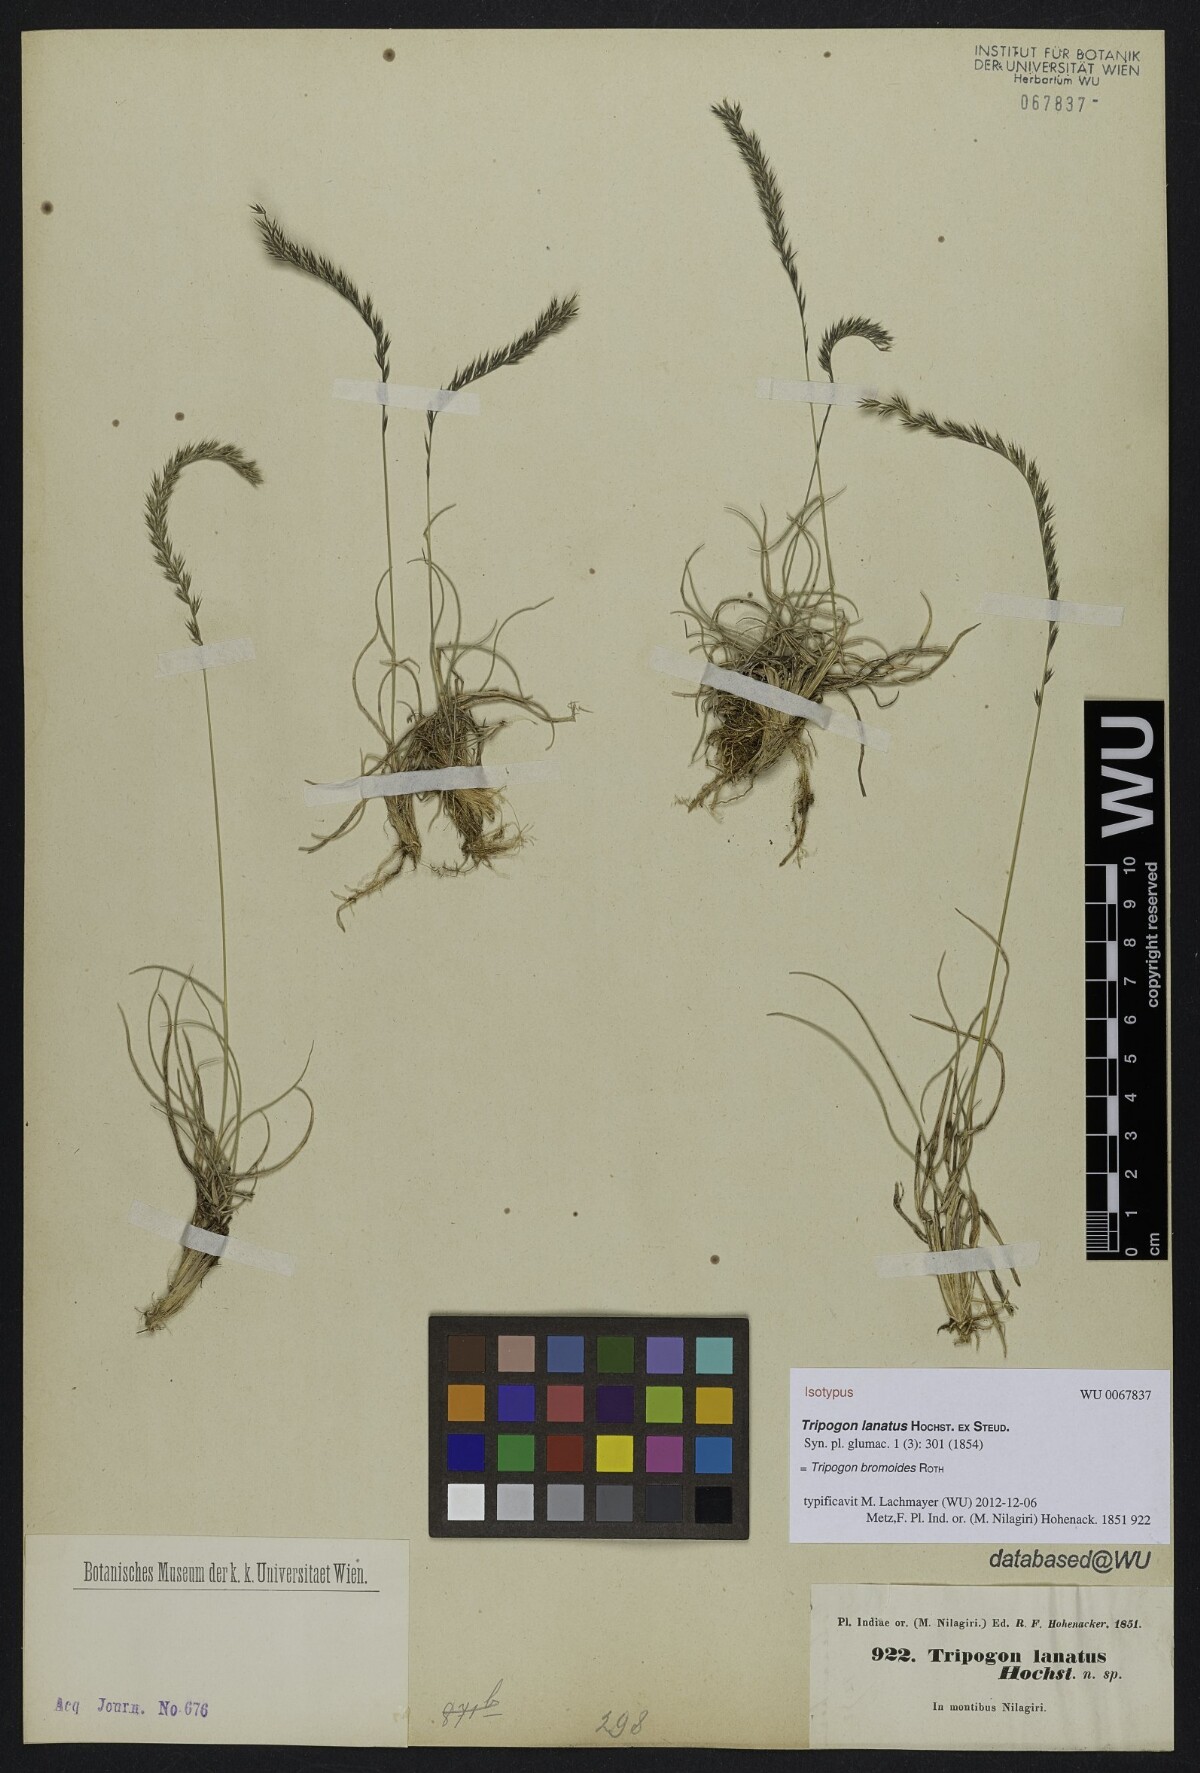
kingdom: Plantae
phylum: Tracheophyta
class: Liliopsida
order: Poales
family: Poaceae
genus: Tripogon
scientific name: Tripogon bromoides
